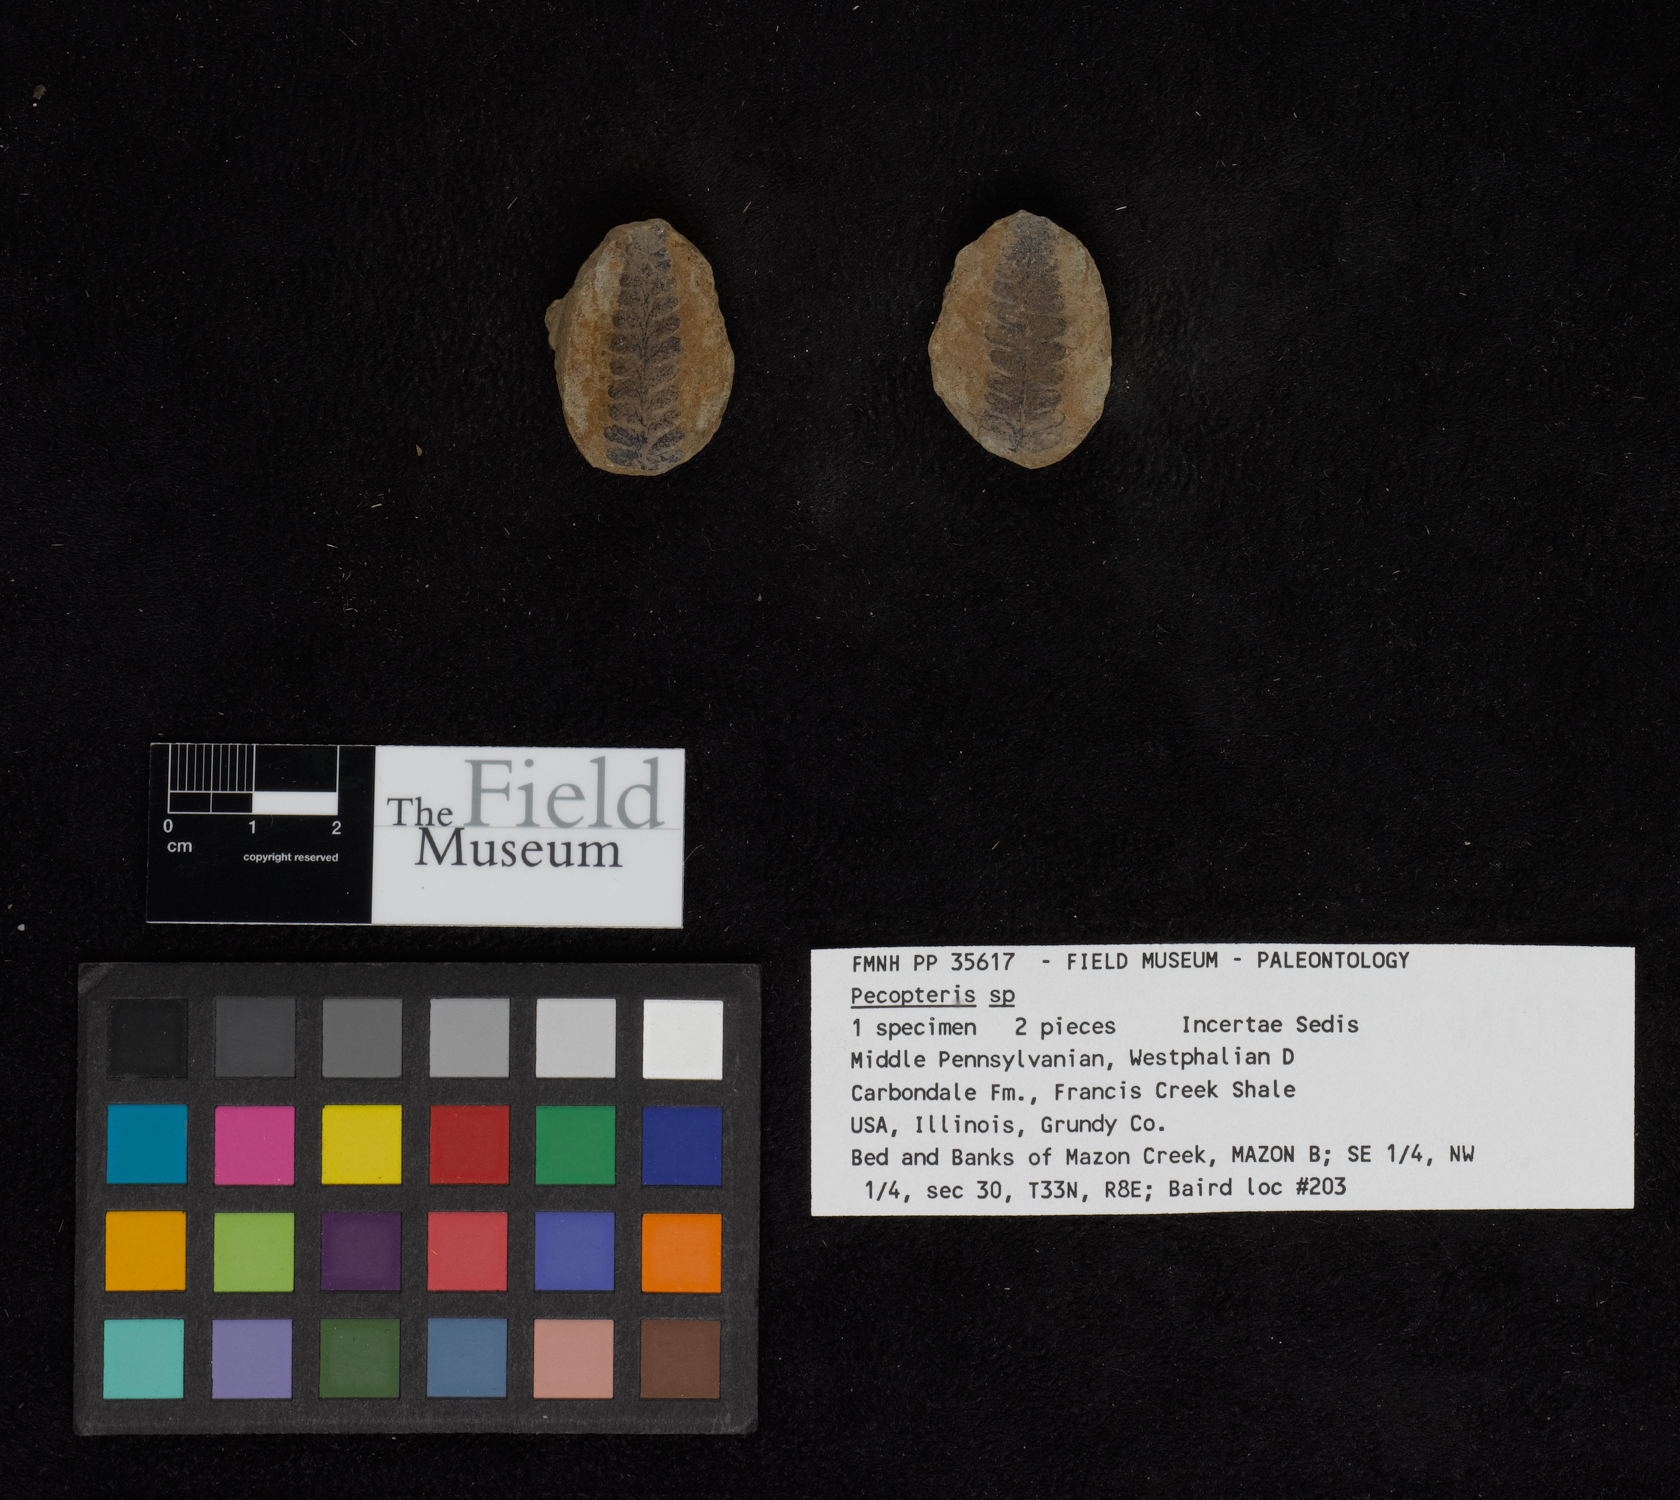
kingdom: Plantae
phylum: Tracheophyta
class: Polypodiopsida
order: Marattiales
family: Asterothecaceae
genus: Pecopteris
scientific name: Pecopteris
